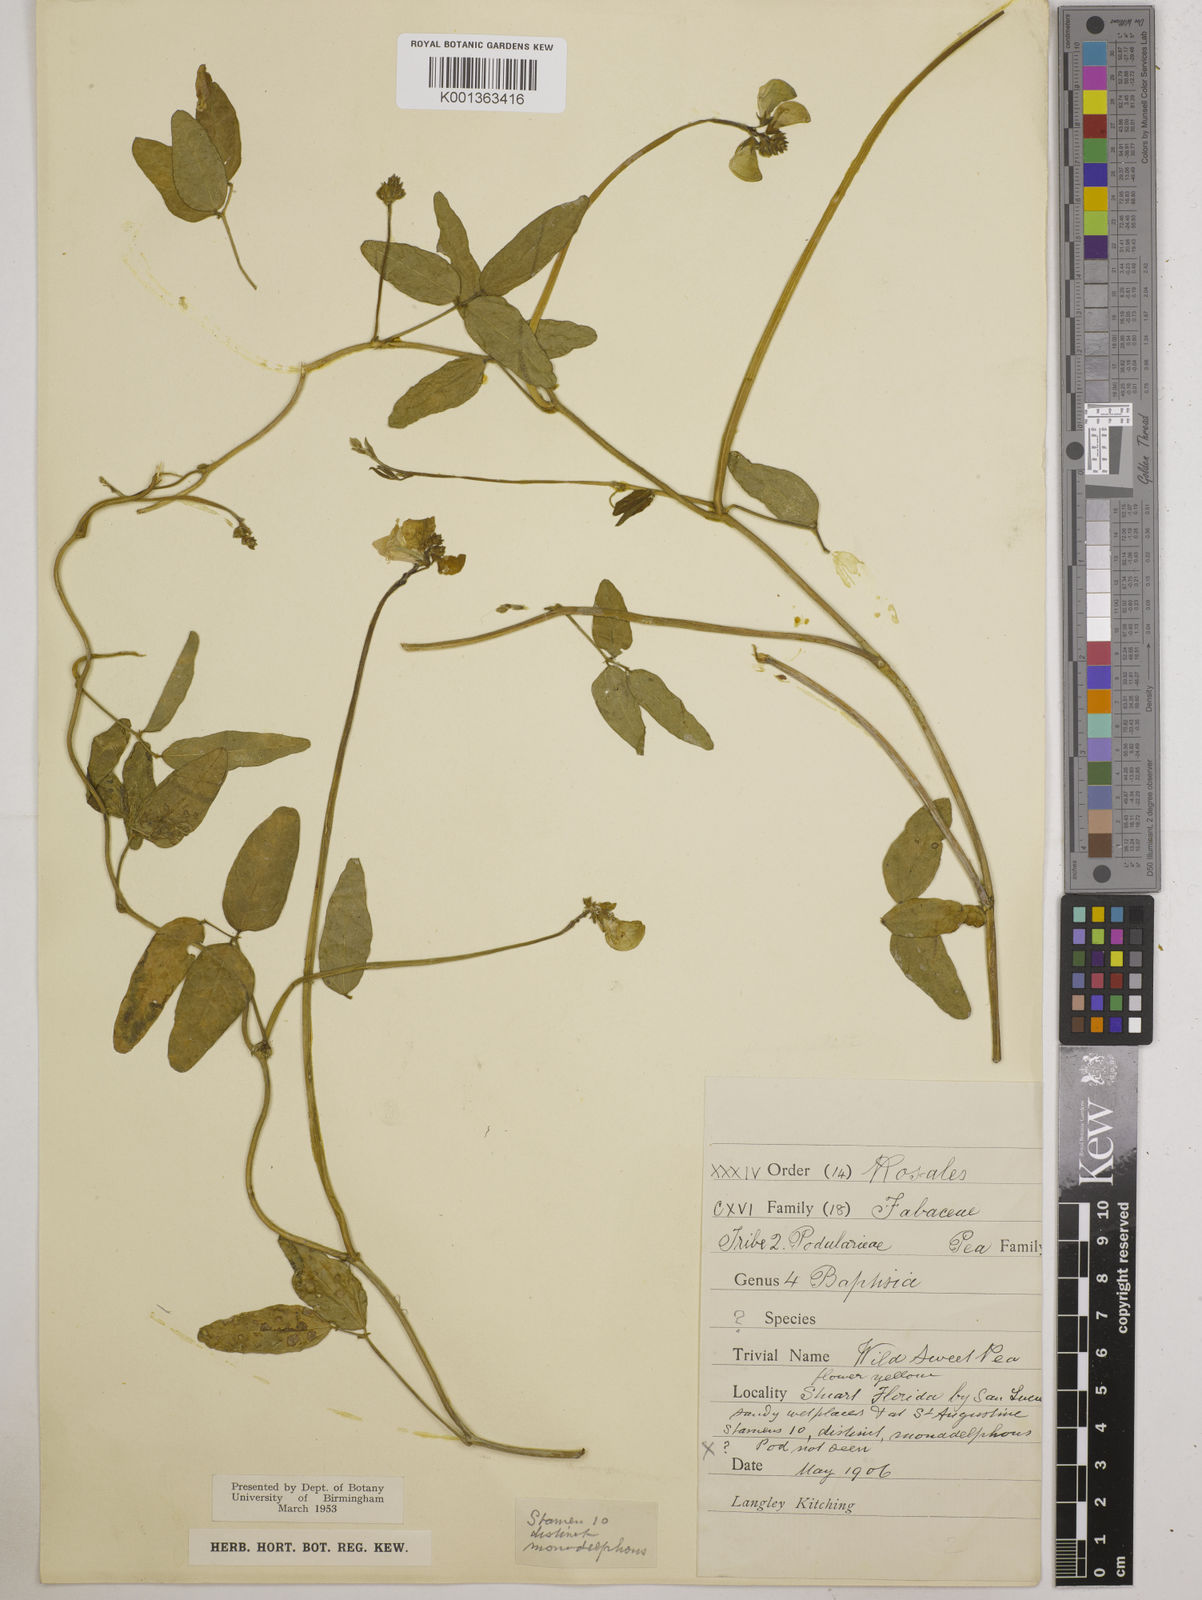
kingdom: Plantae
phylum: Tracheophyta
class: Magnoliopsida
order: Fabales
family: Fabaceae
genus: Vigna
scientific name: Vigna
